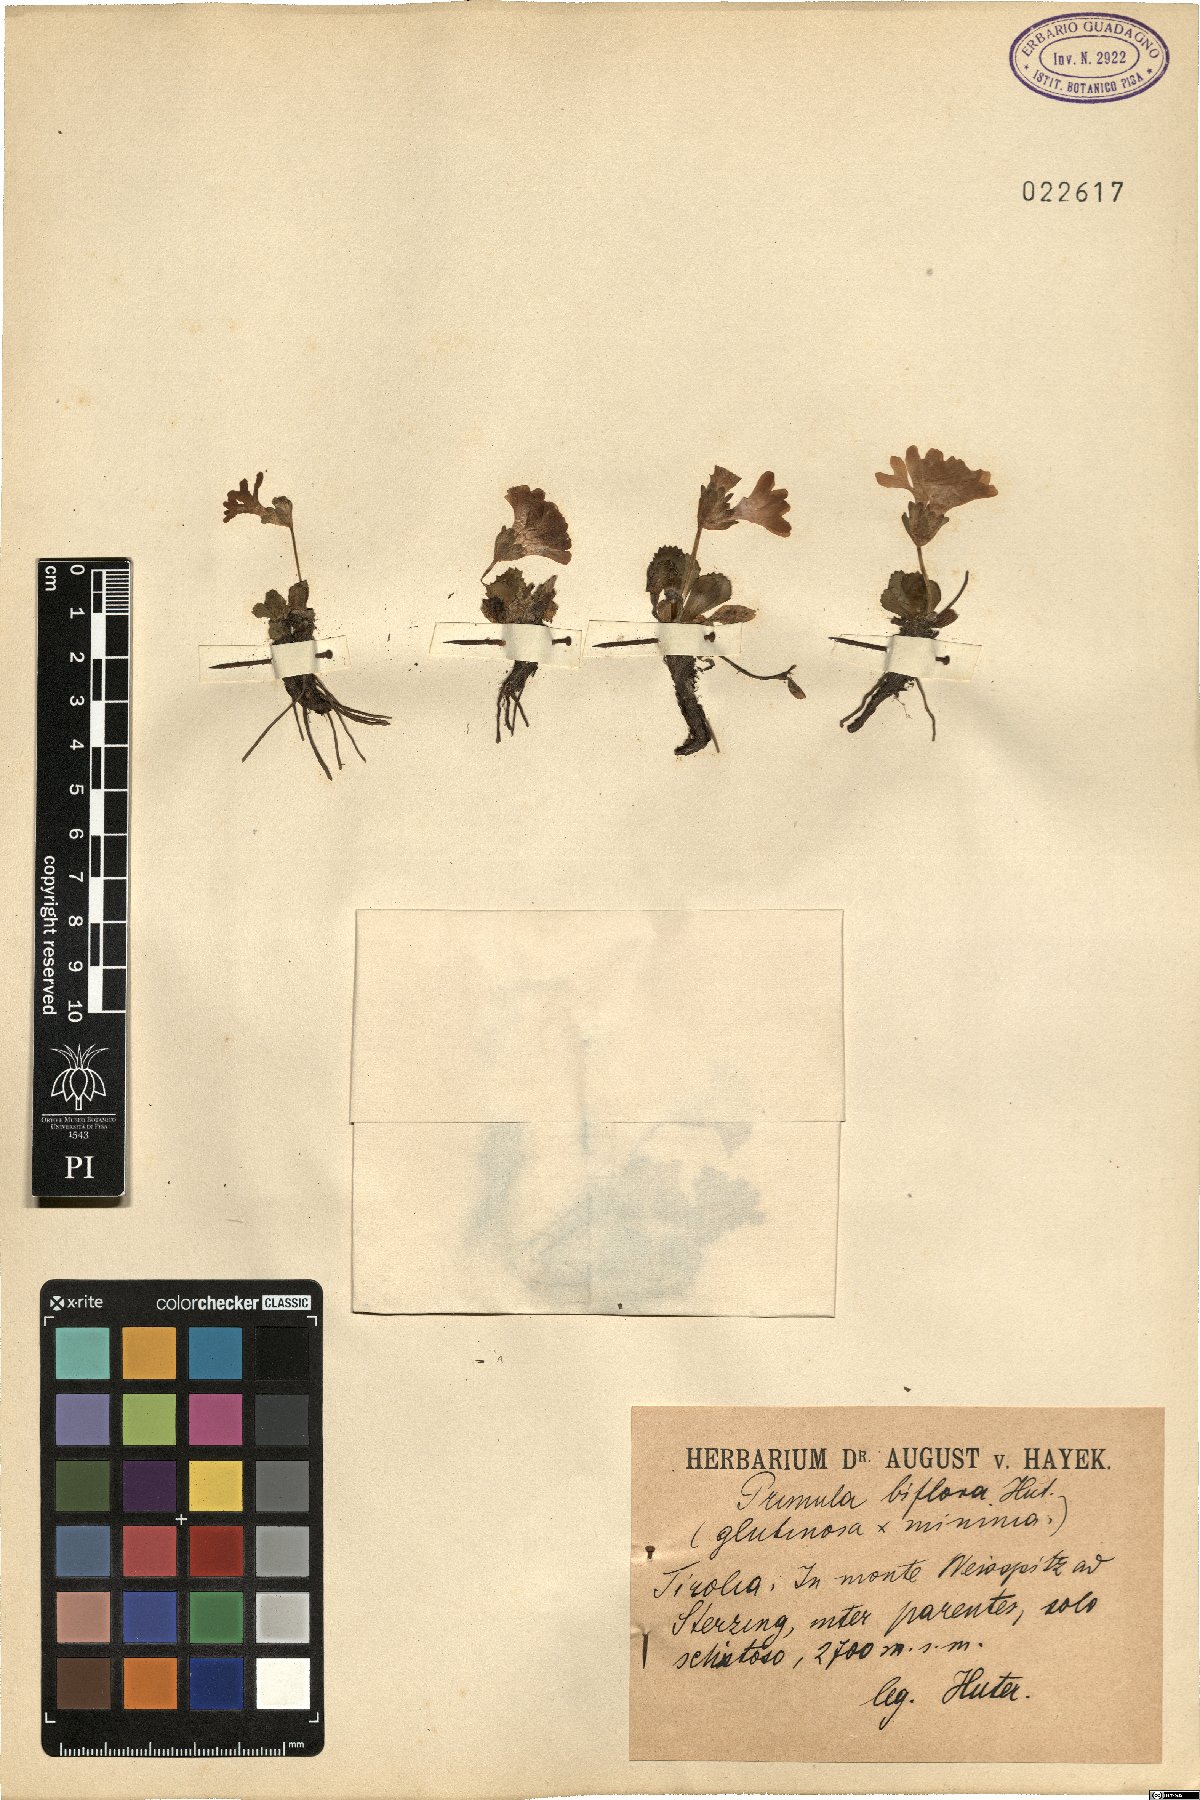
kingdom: Plantae
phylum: Tracheophyta
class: Magnoliopsida
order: Ericales
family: Primulaceae
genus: Primula
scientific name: Primula floerkeana
